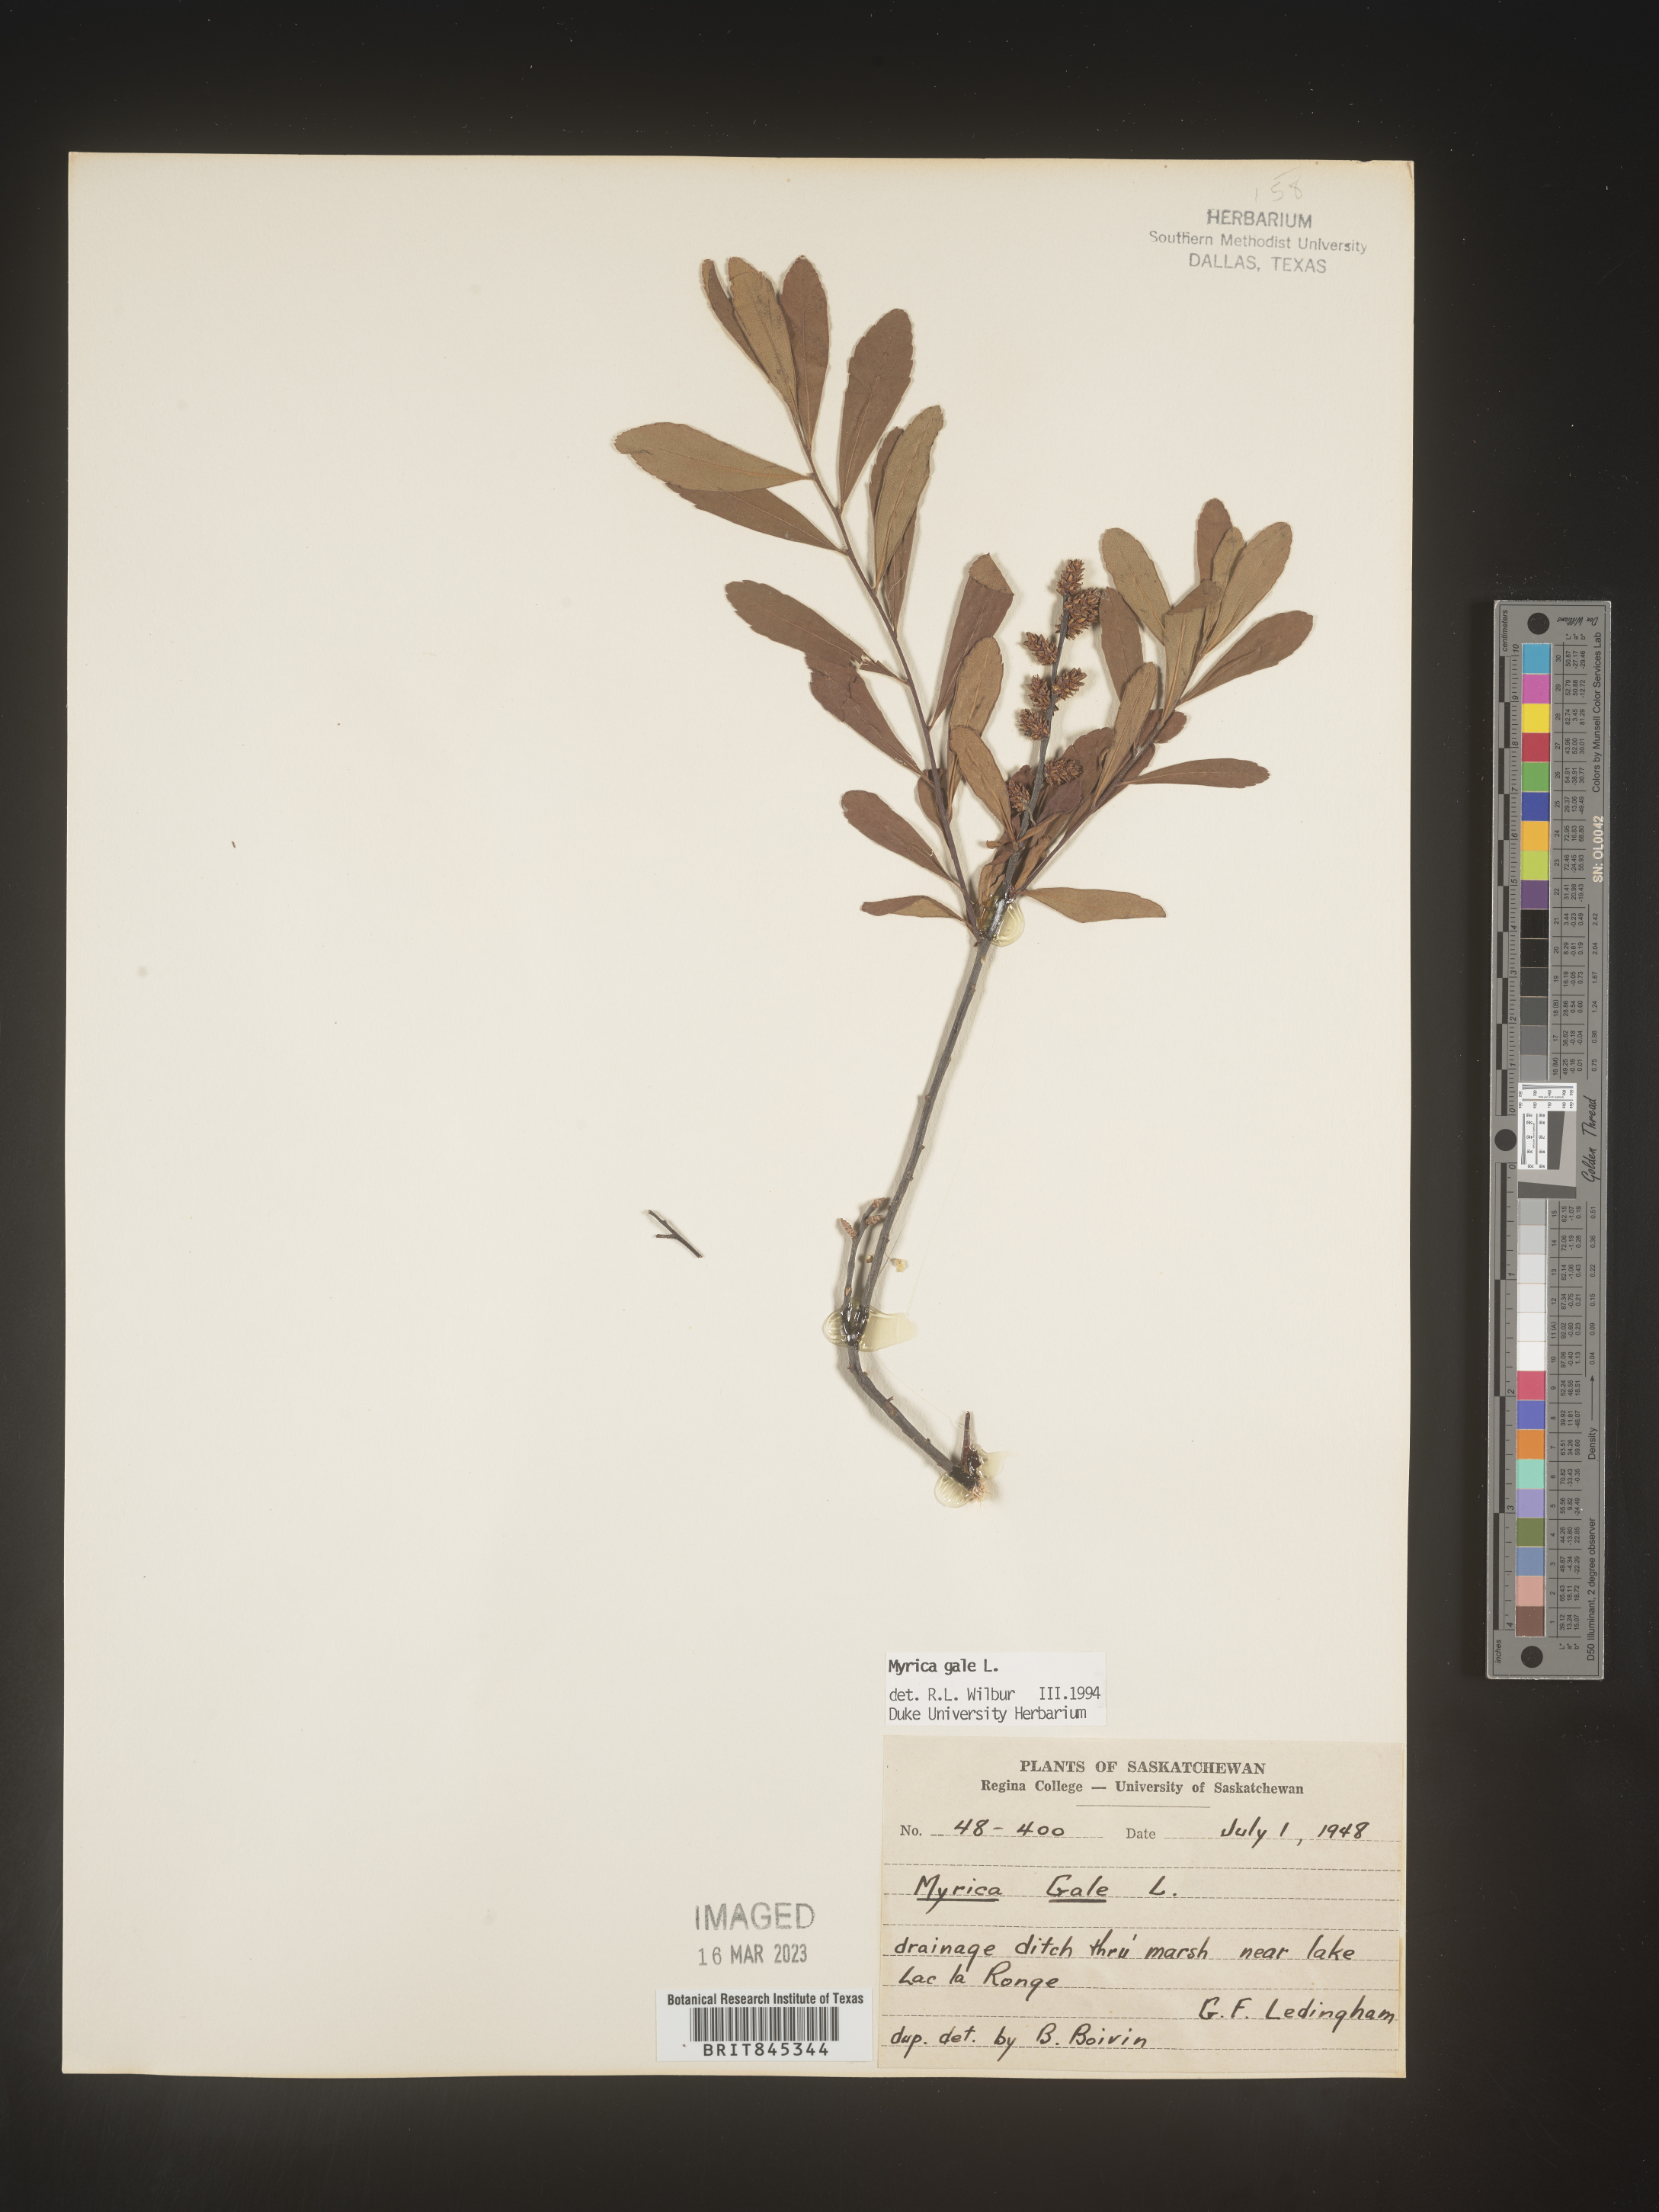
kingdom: Plantae
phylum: Tracheophyta
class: Magnoliopsida
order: Fagales
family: Myricaceae
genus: Myrica
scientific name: Myrica gale
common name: Sweet gale
